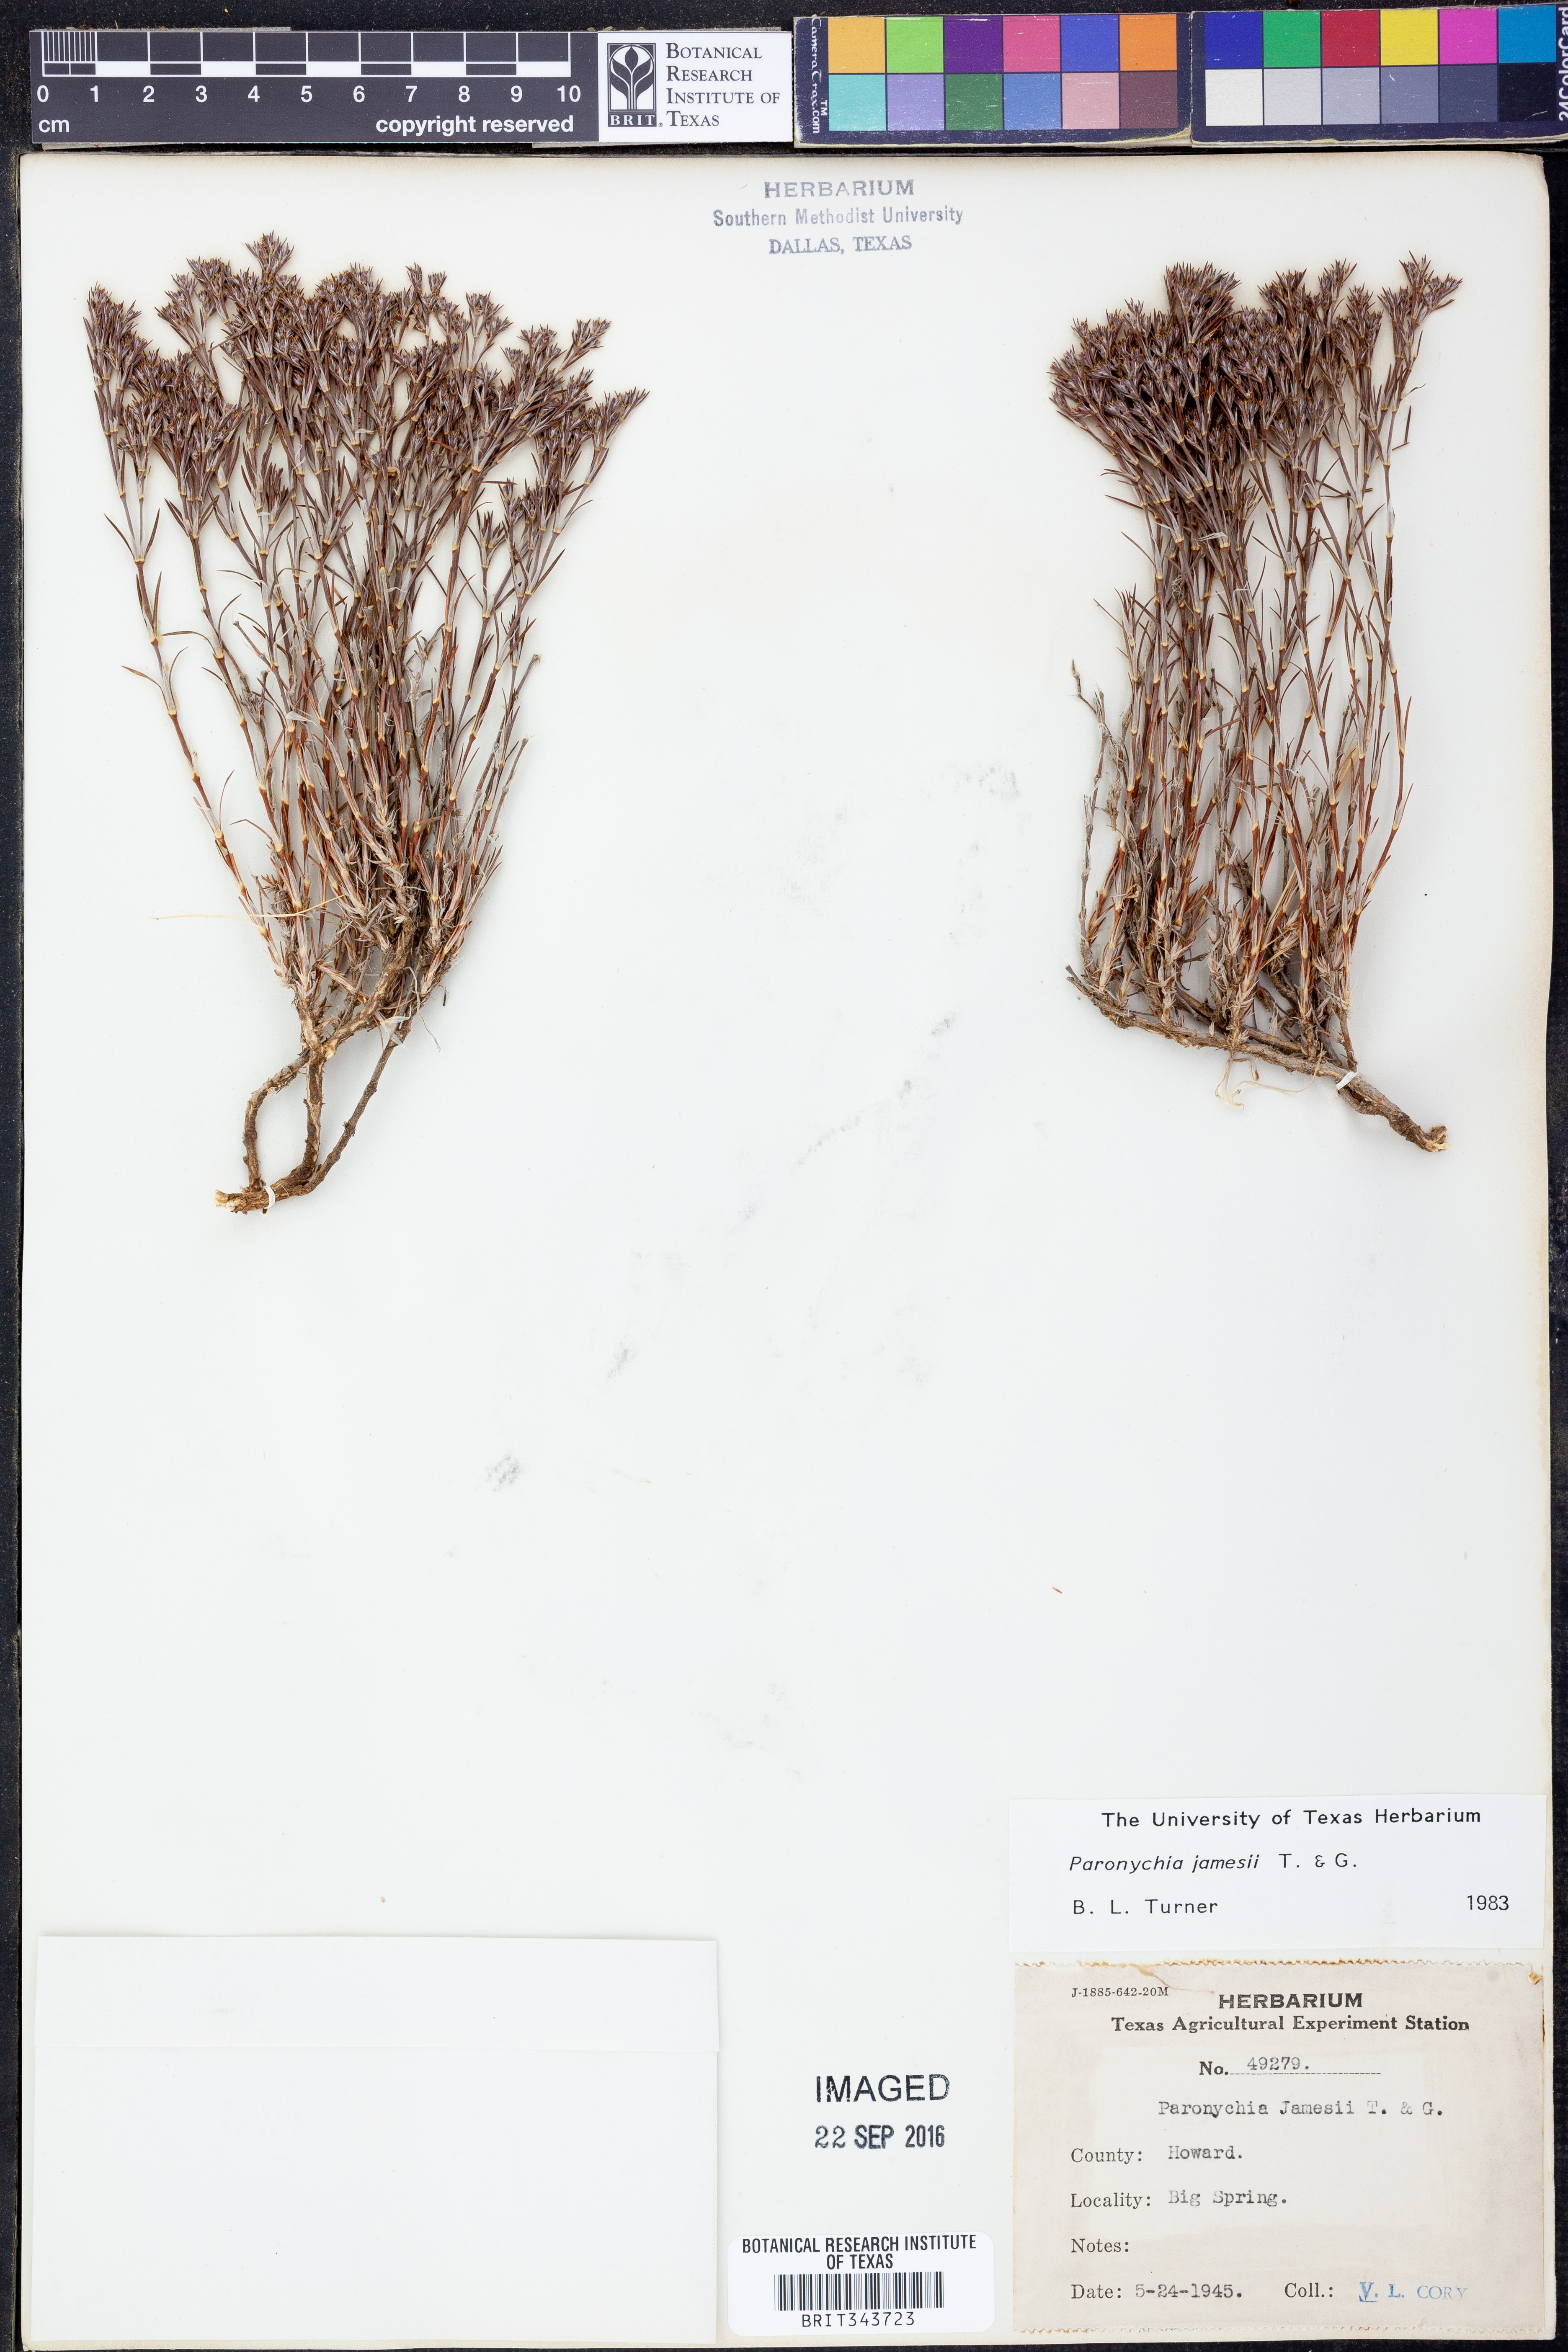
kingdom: Plantae
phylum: Tracheophyta
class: Magnoliopsida
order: Caryophyllales
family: Caryophyllaceae
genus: Paronychia
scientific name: Paronychia jamesii
